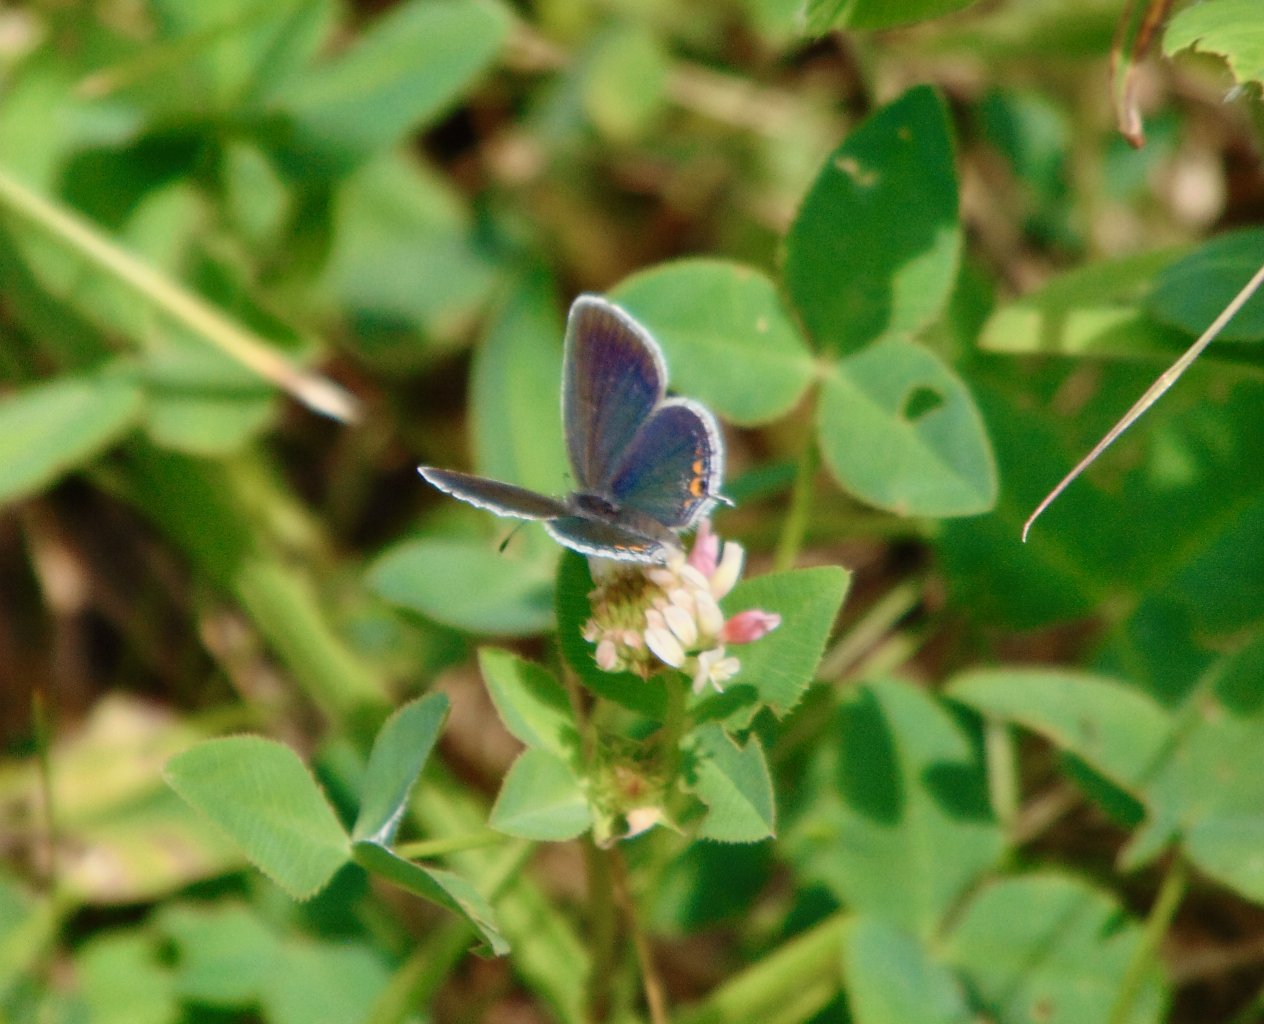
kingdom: Animalia
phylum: Arthropoda
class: Insecta
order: Lepidoptera
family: Lycaenidae
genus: Elkalyce
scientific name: Elkalyce comyntas
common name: Eastern Tailed-Blue
